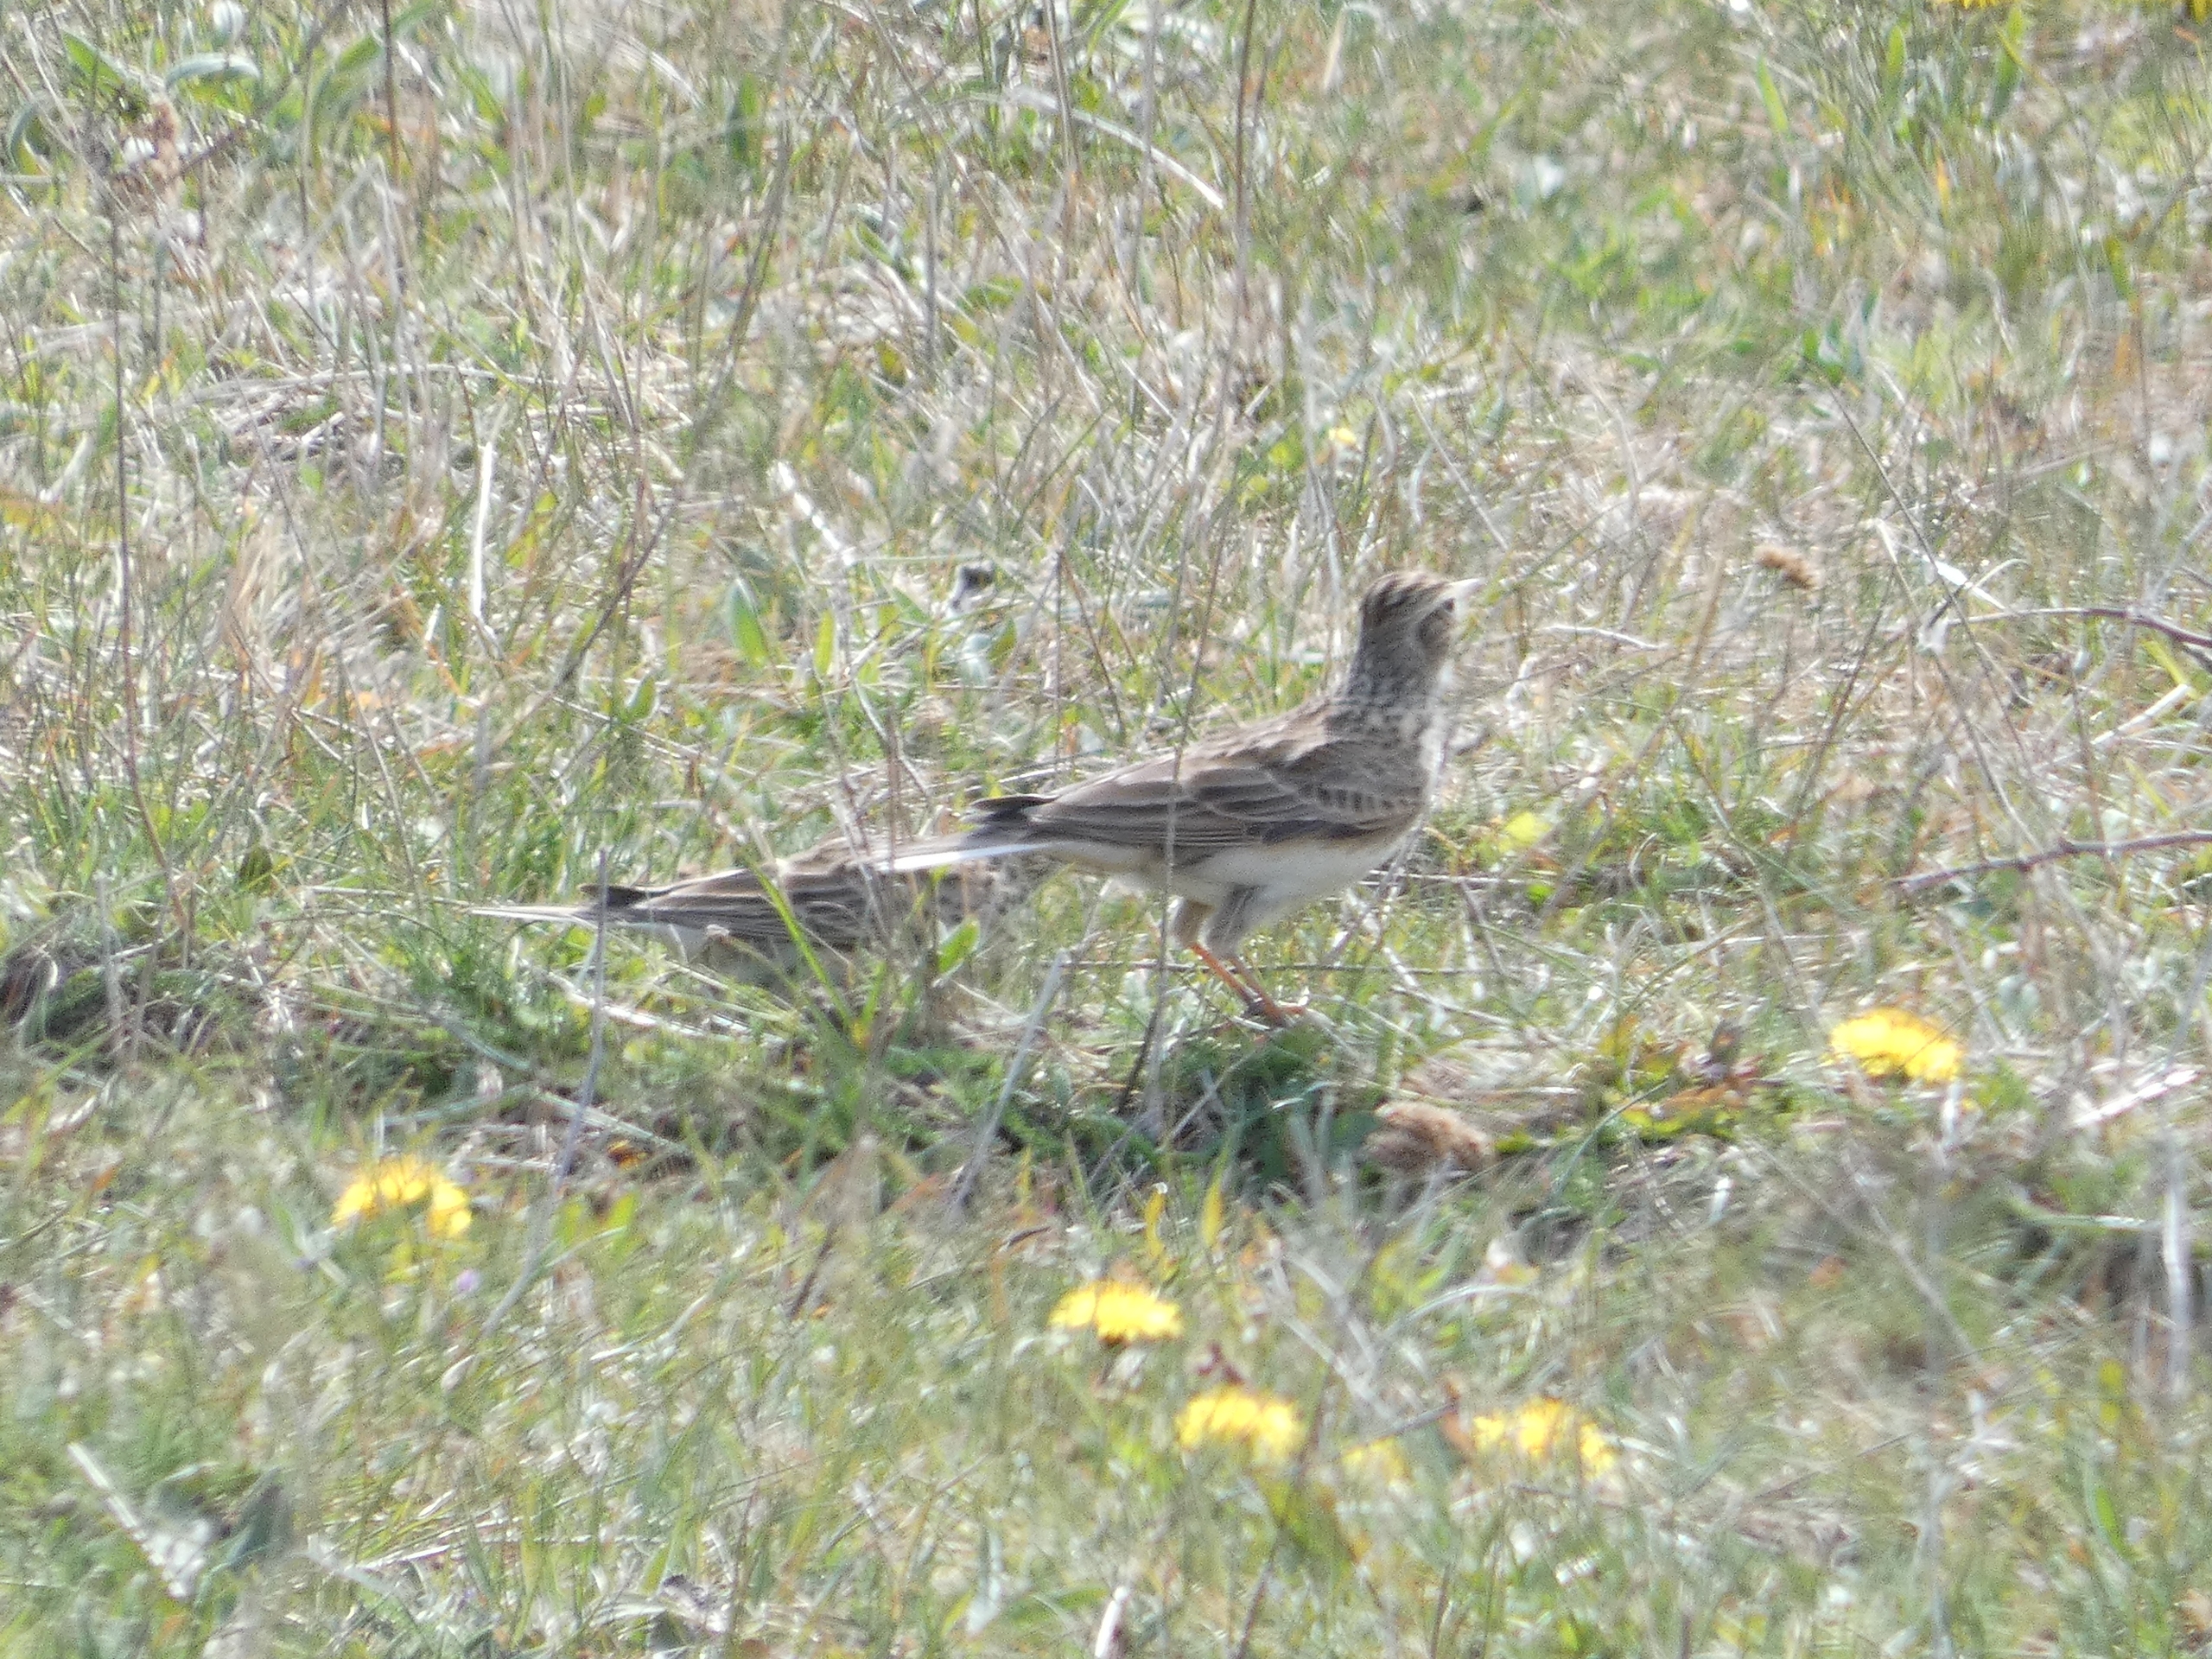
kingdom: Animalia
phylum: Chordata
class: Aves
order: Passeriformes
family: Alaudidae
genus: Alauda
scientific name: Alauda arvensis
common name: Sanglærke
